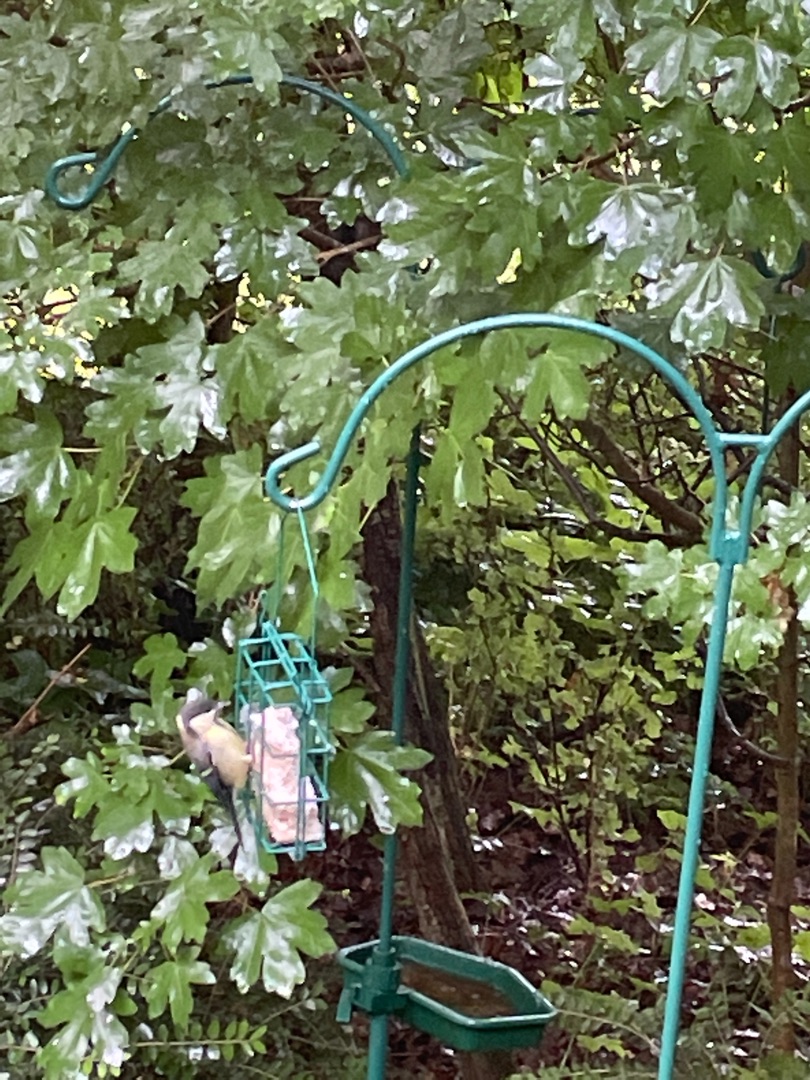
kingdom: Animalia
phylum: Chordata
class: Aves
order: Passeriformes
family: Paridae
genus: Parus
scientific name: Parus major
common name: Musvit
